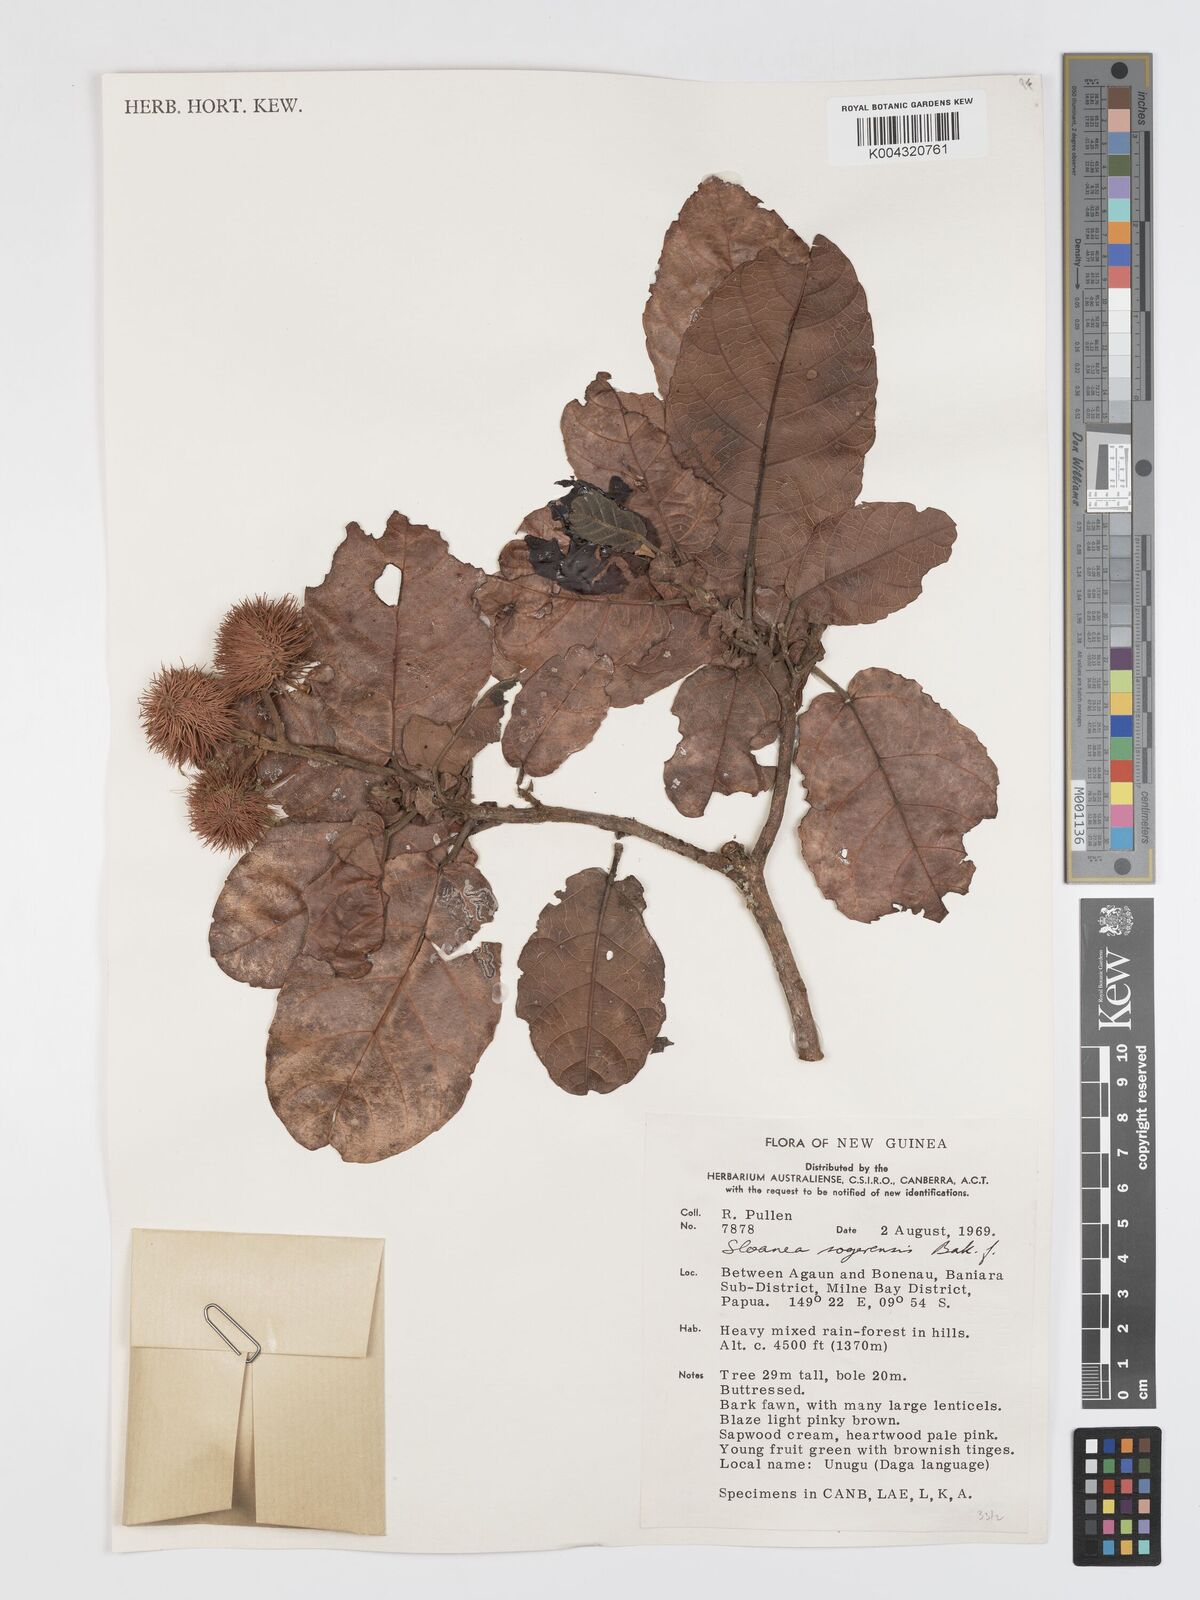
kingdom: Plantae
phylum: Tracheophyta
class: Magnoliopsida
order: Oxalidales
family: Elaeocarpaceae
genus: Sloanea
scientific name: Sloanea sogerensis
